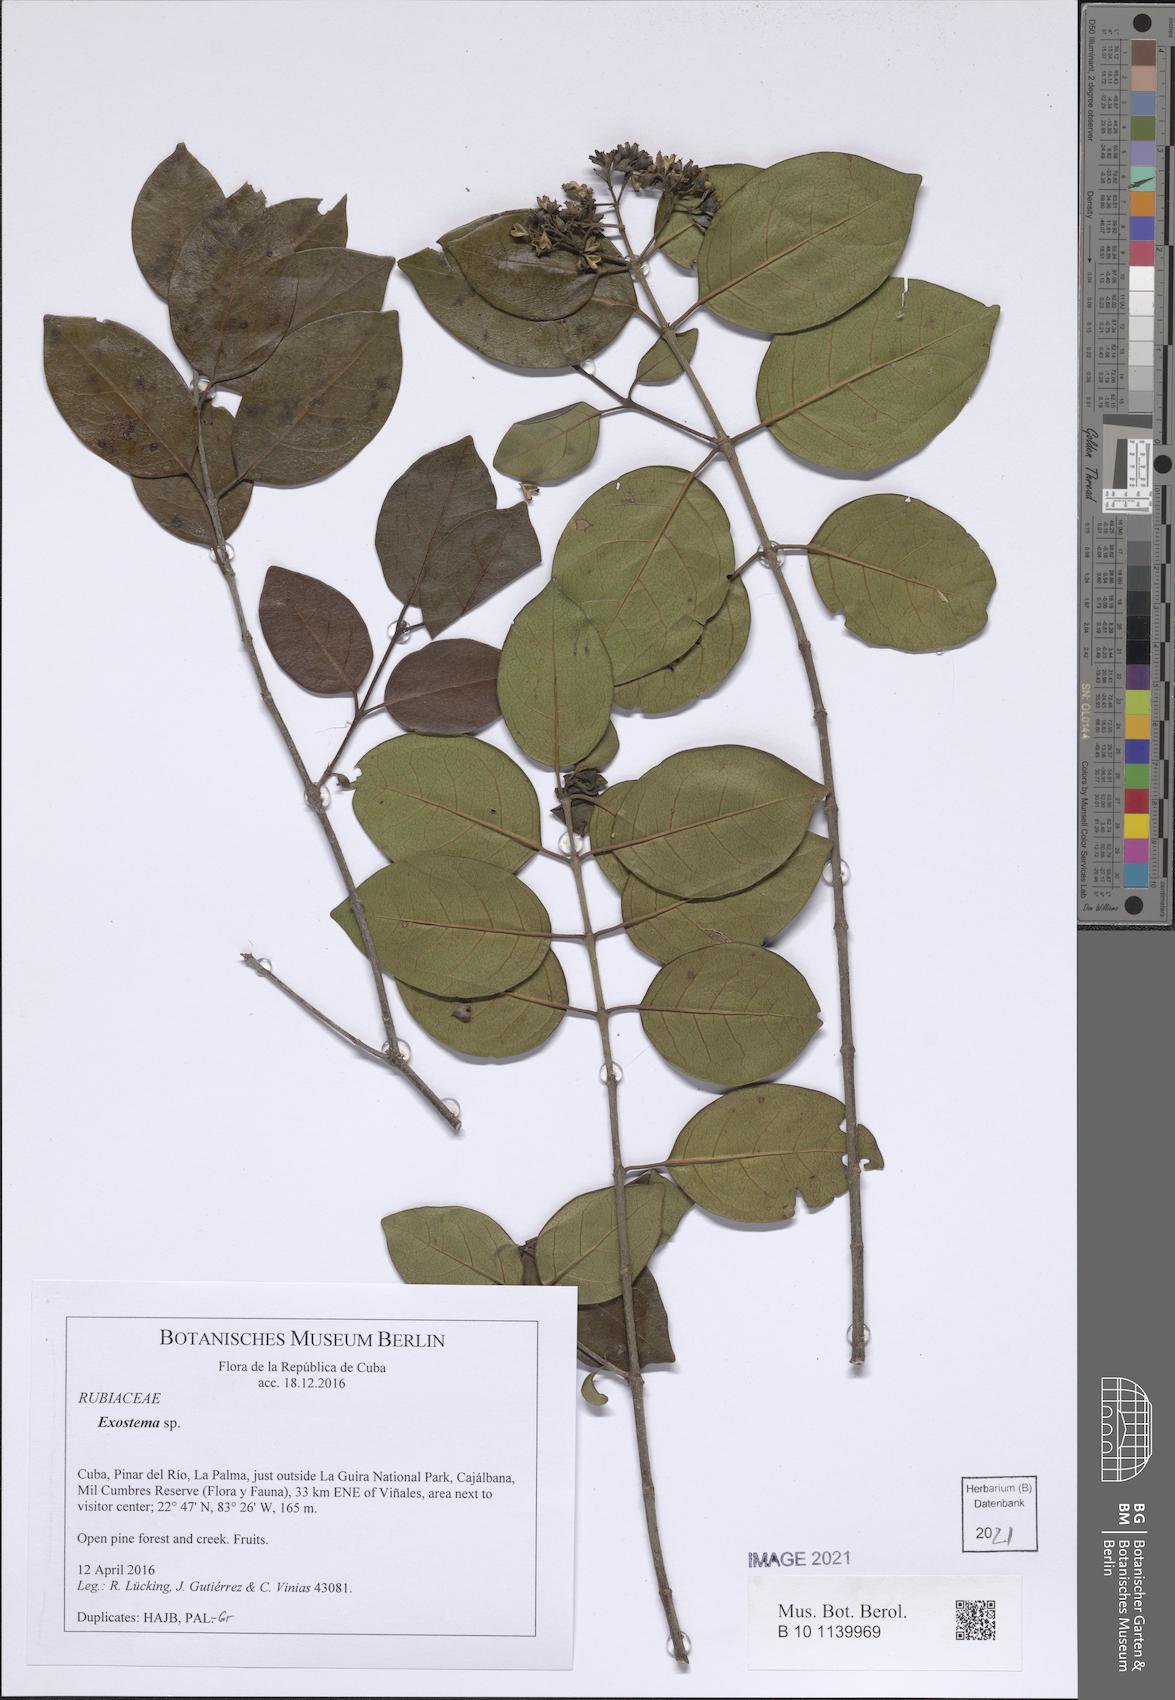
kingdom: Plantae
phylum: Tracheophyta
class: Magnoliopsida
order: Gentianales
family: Rubiaceae
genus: Exostema
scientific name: Exostema
